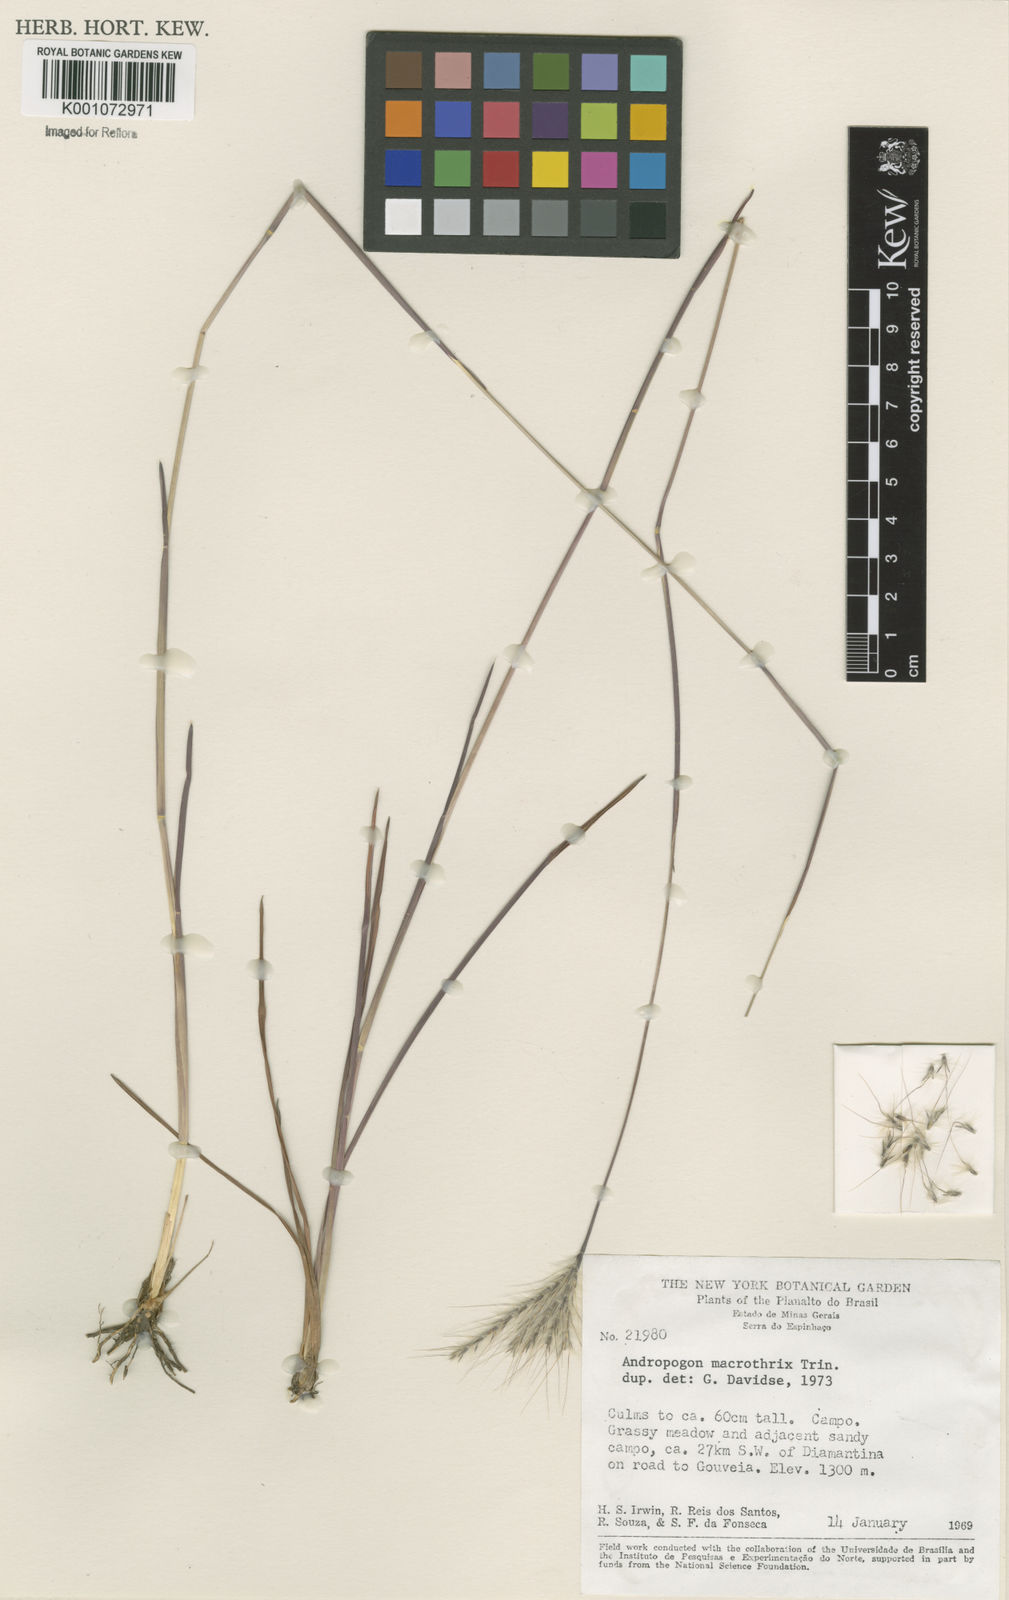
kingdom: Plantae
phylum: Tracheophyta
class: Liliopsida
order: Poales
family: Poaceae
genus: Andropogon
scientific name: Andropogon macrothrix
